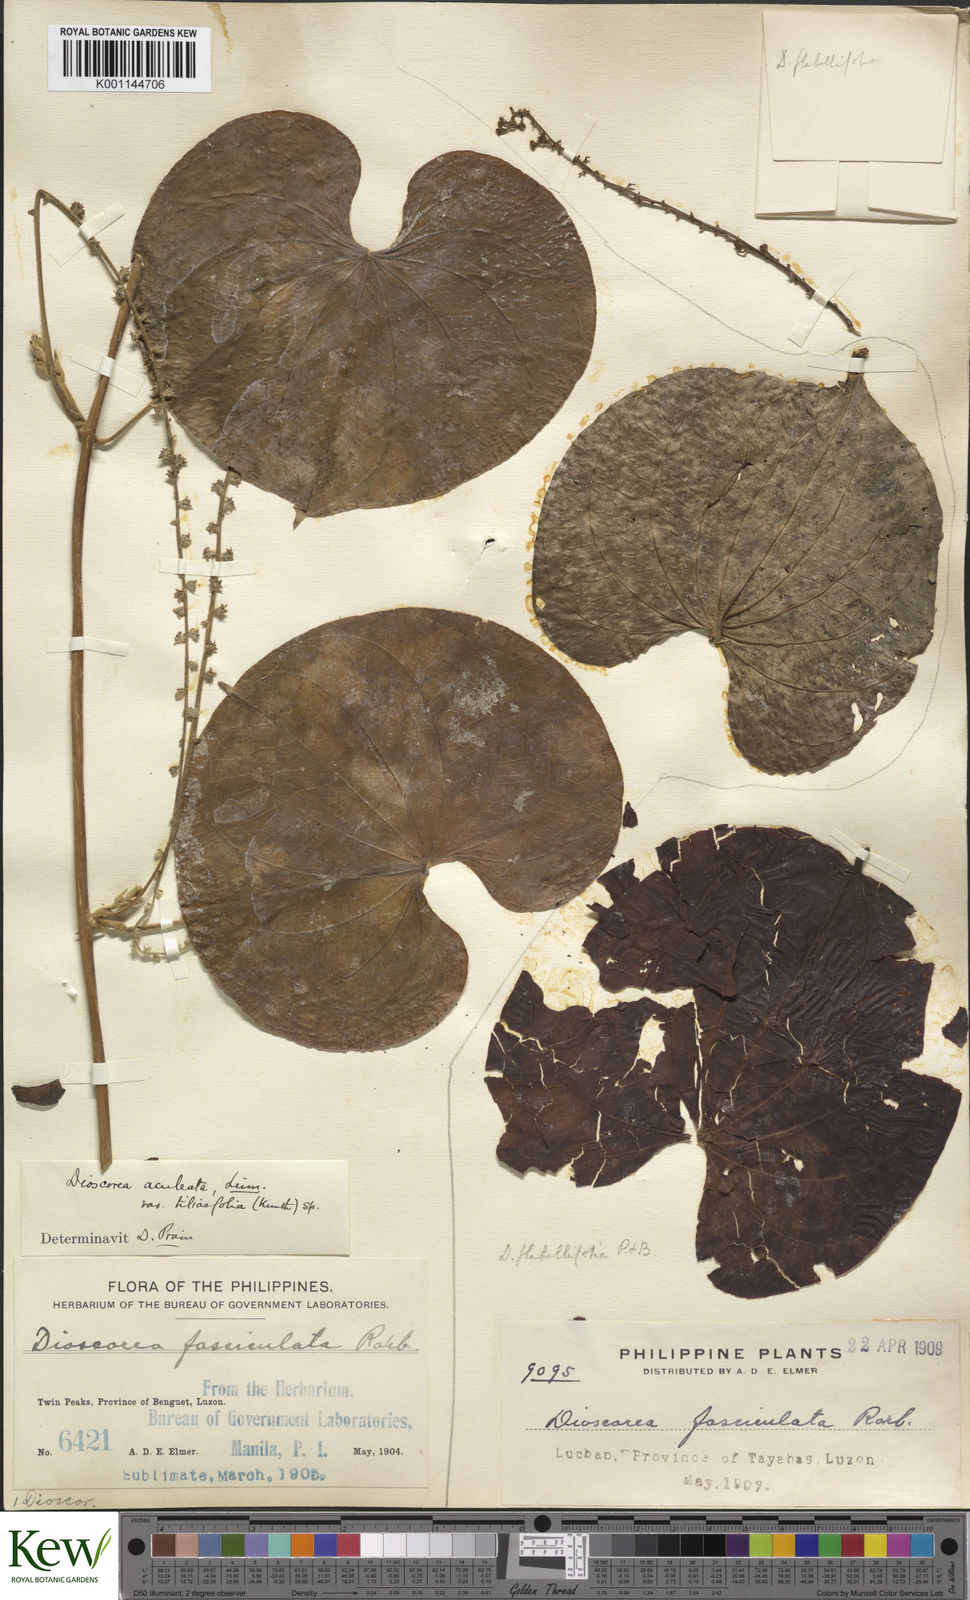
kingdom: Plantae
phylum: Tracheophyta
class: Liliopsida
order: Dioscoreales
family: Dioscoreaceae
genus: Dioscorea
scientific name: Dioscorea esculenta
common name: Chinese yam
